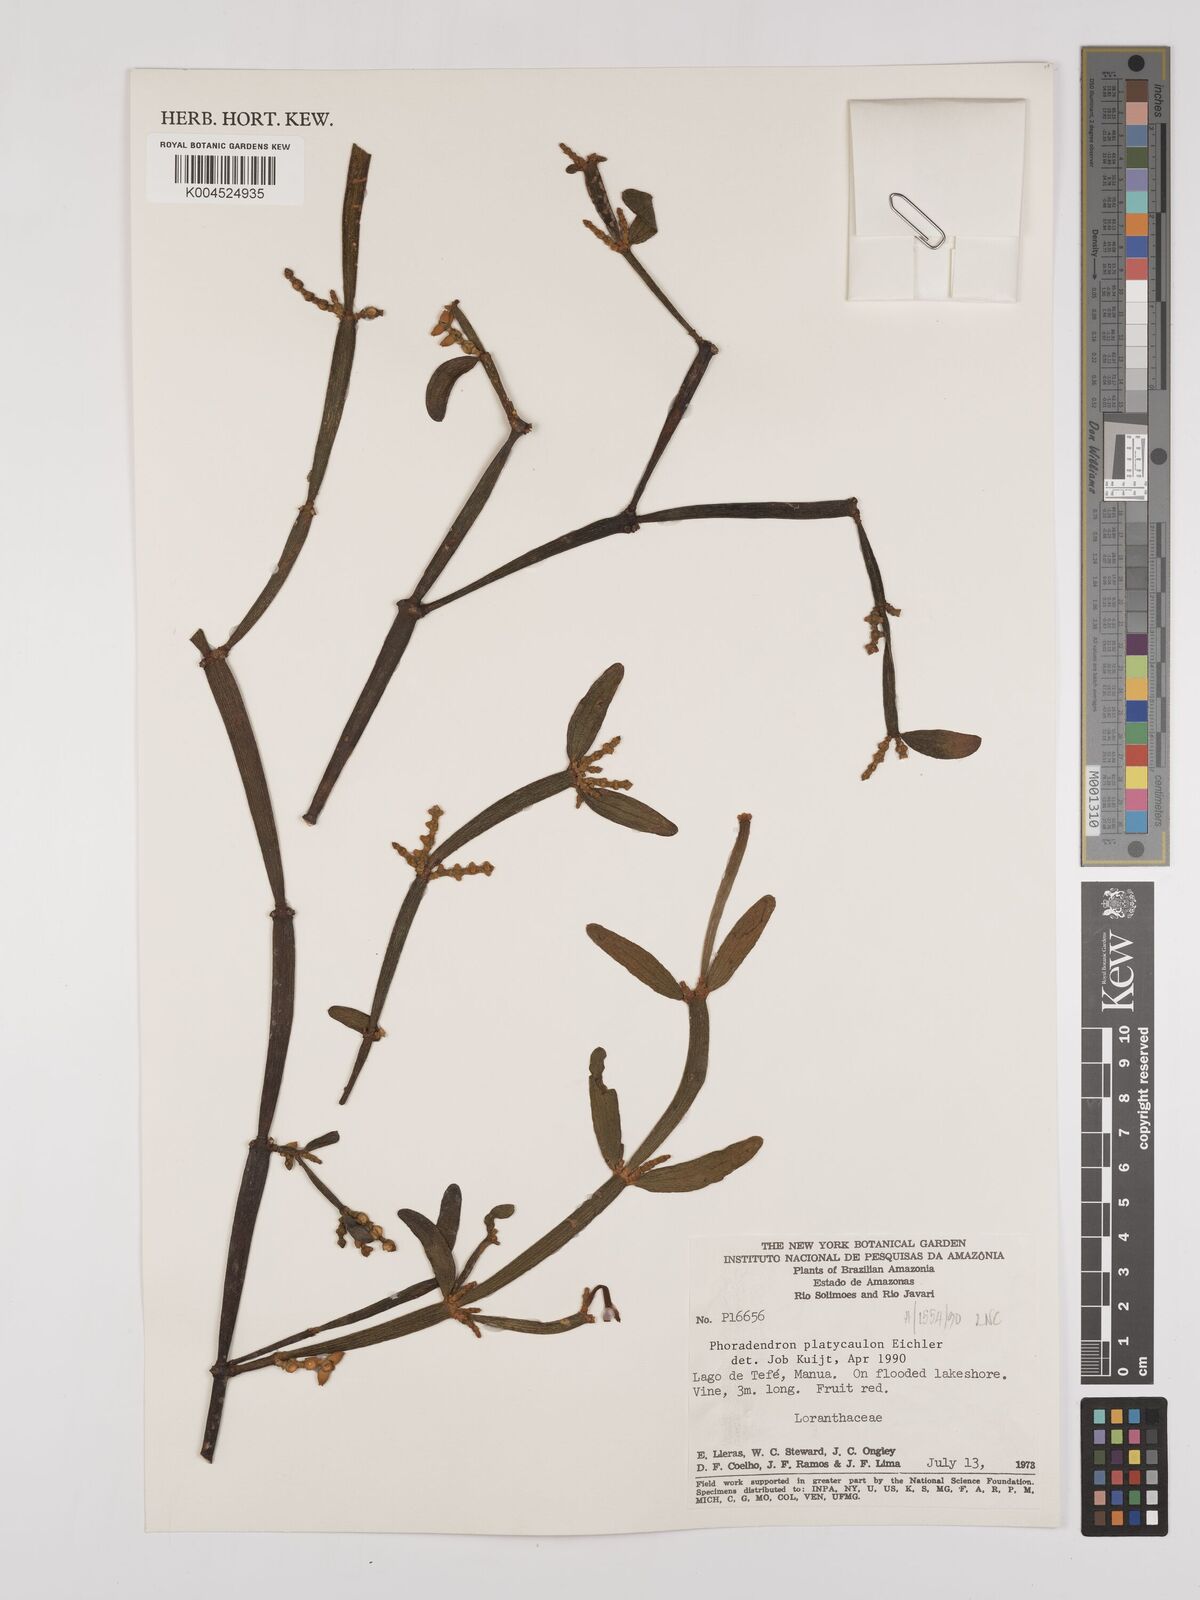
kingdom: Plantae
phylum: Tracheophyta
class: Magnoliopsida
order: Santalales
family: Viscaceae
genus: Phoradendron
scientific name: Phoradendron planiphyllum
